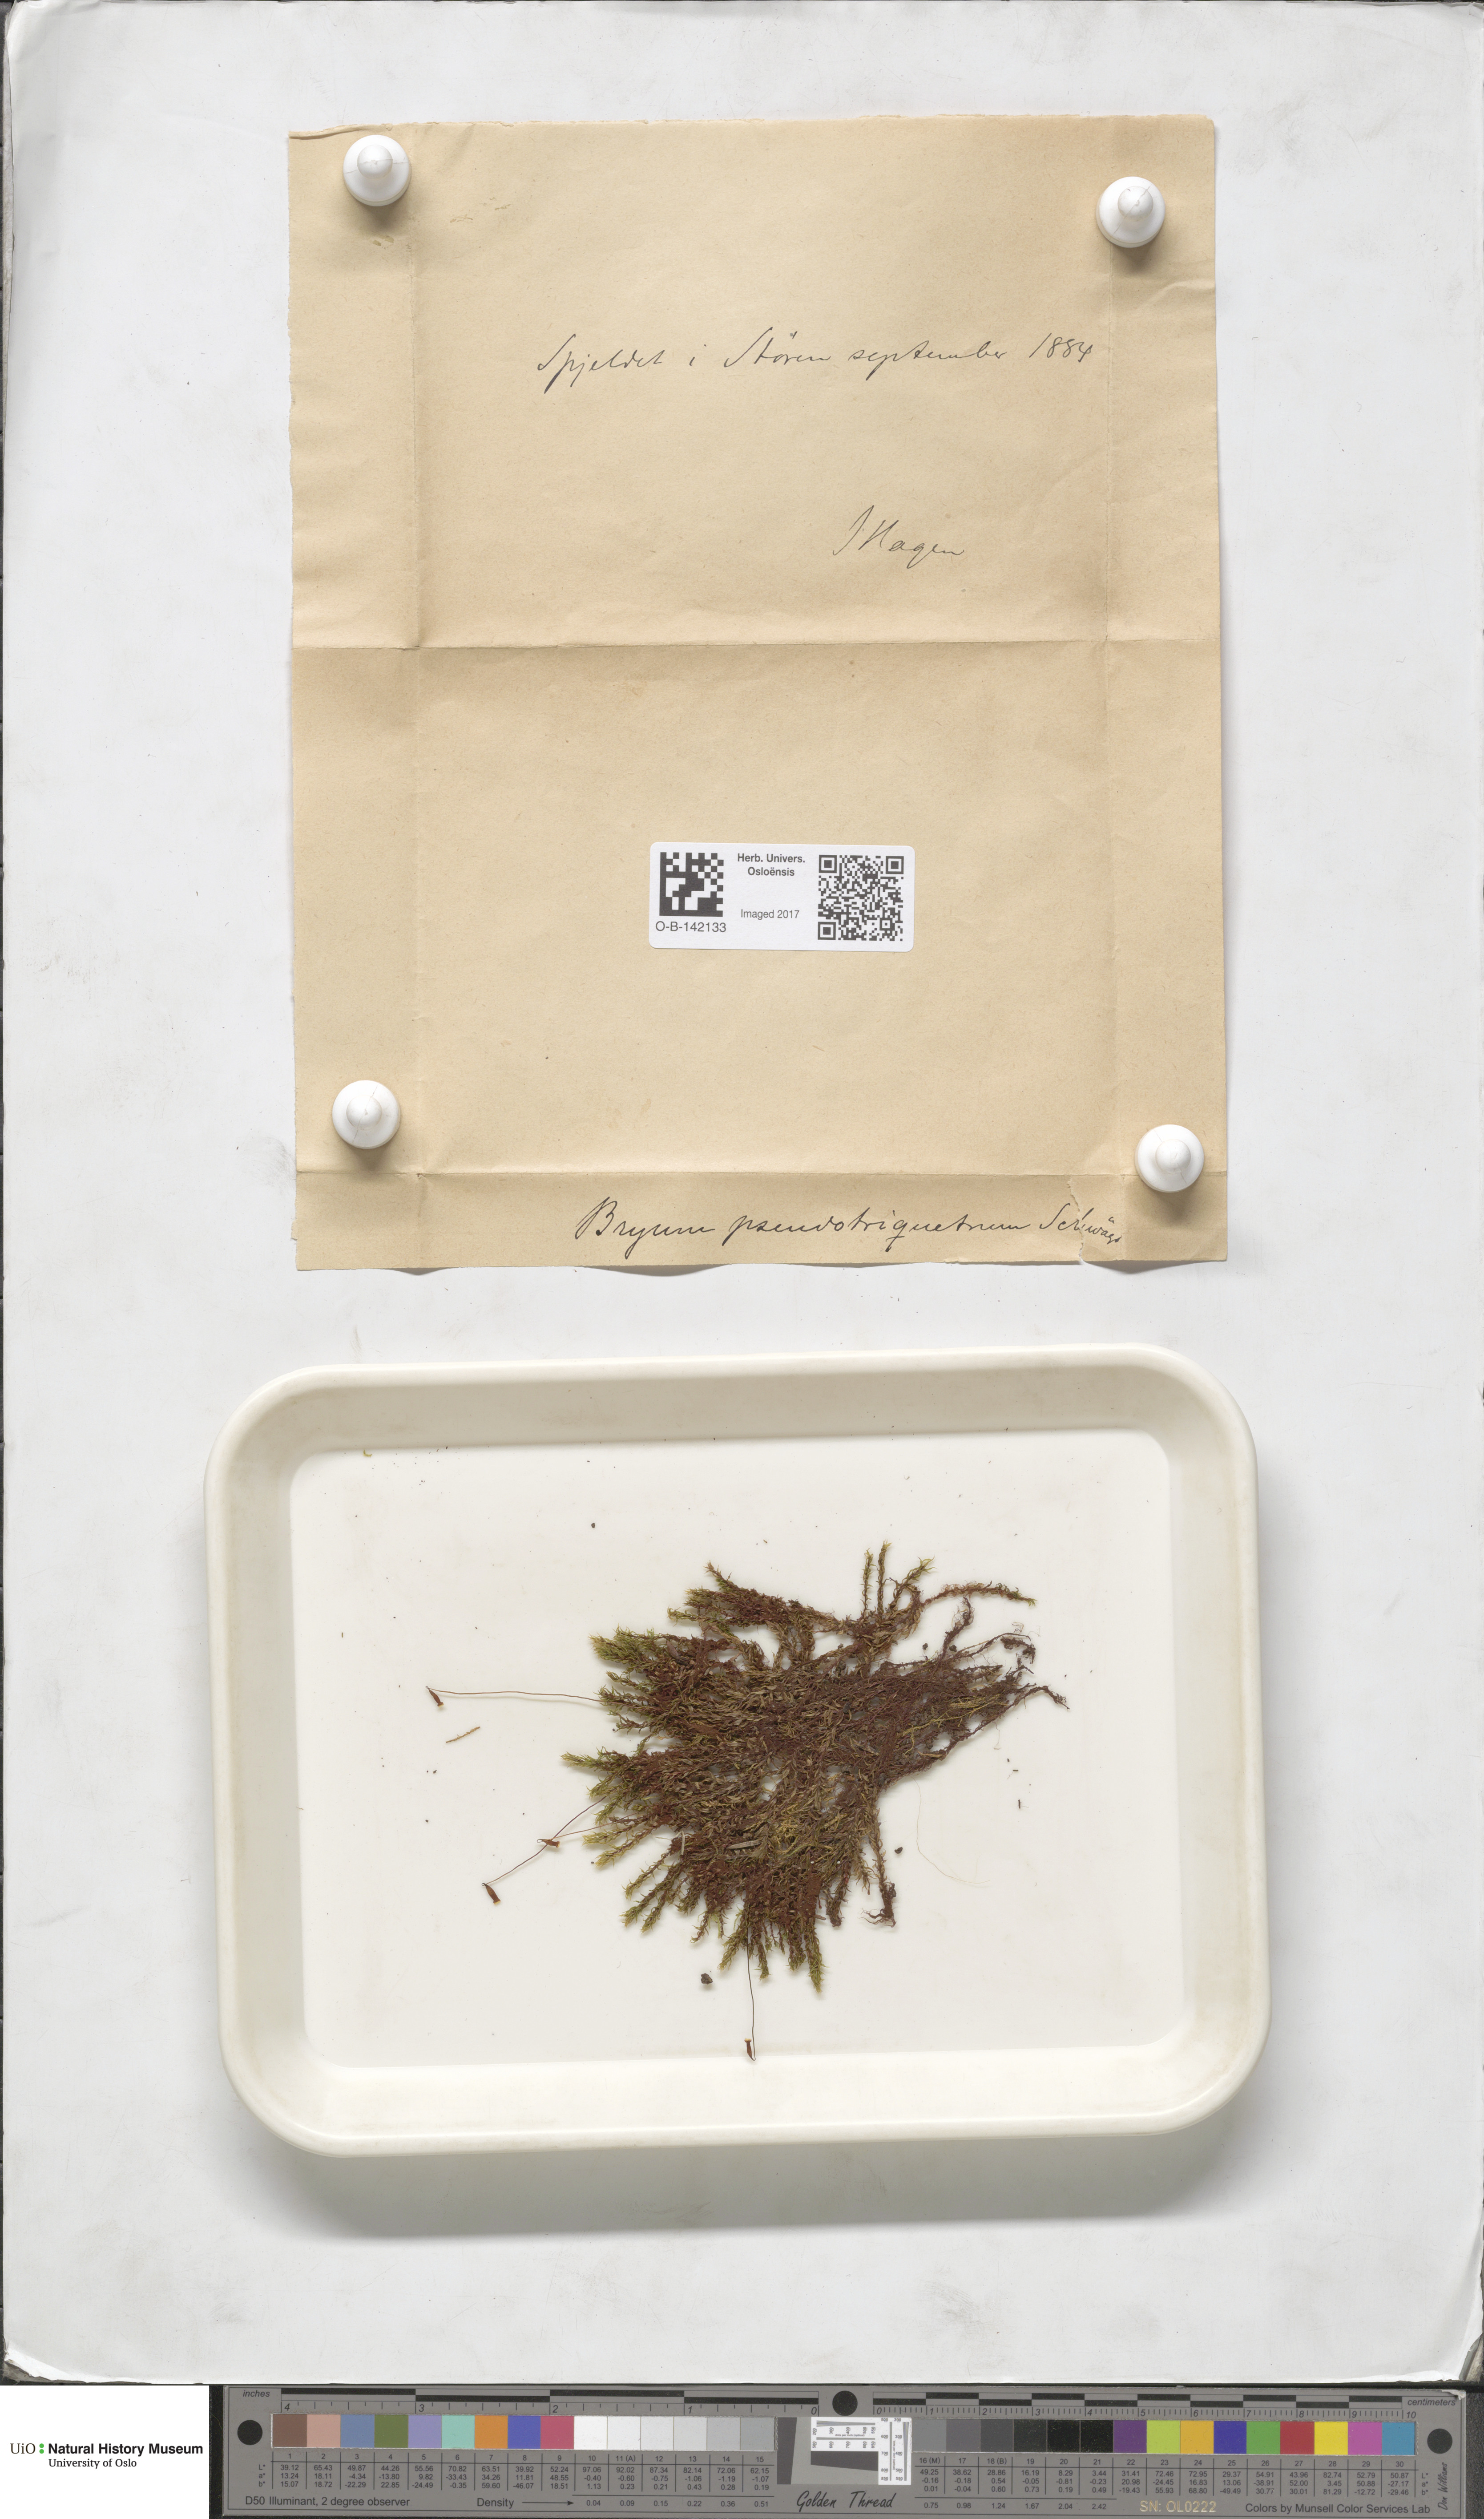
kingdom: Plantae
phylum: Bryophyta
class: Bryopsida
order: Bryales
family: Bryaceae
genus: Ptychostomum
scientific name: Ptychostomum pseudotriquetrum
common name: Long-leaved thread moss
